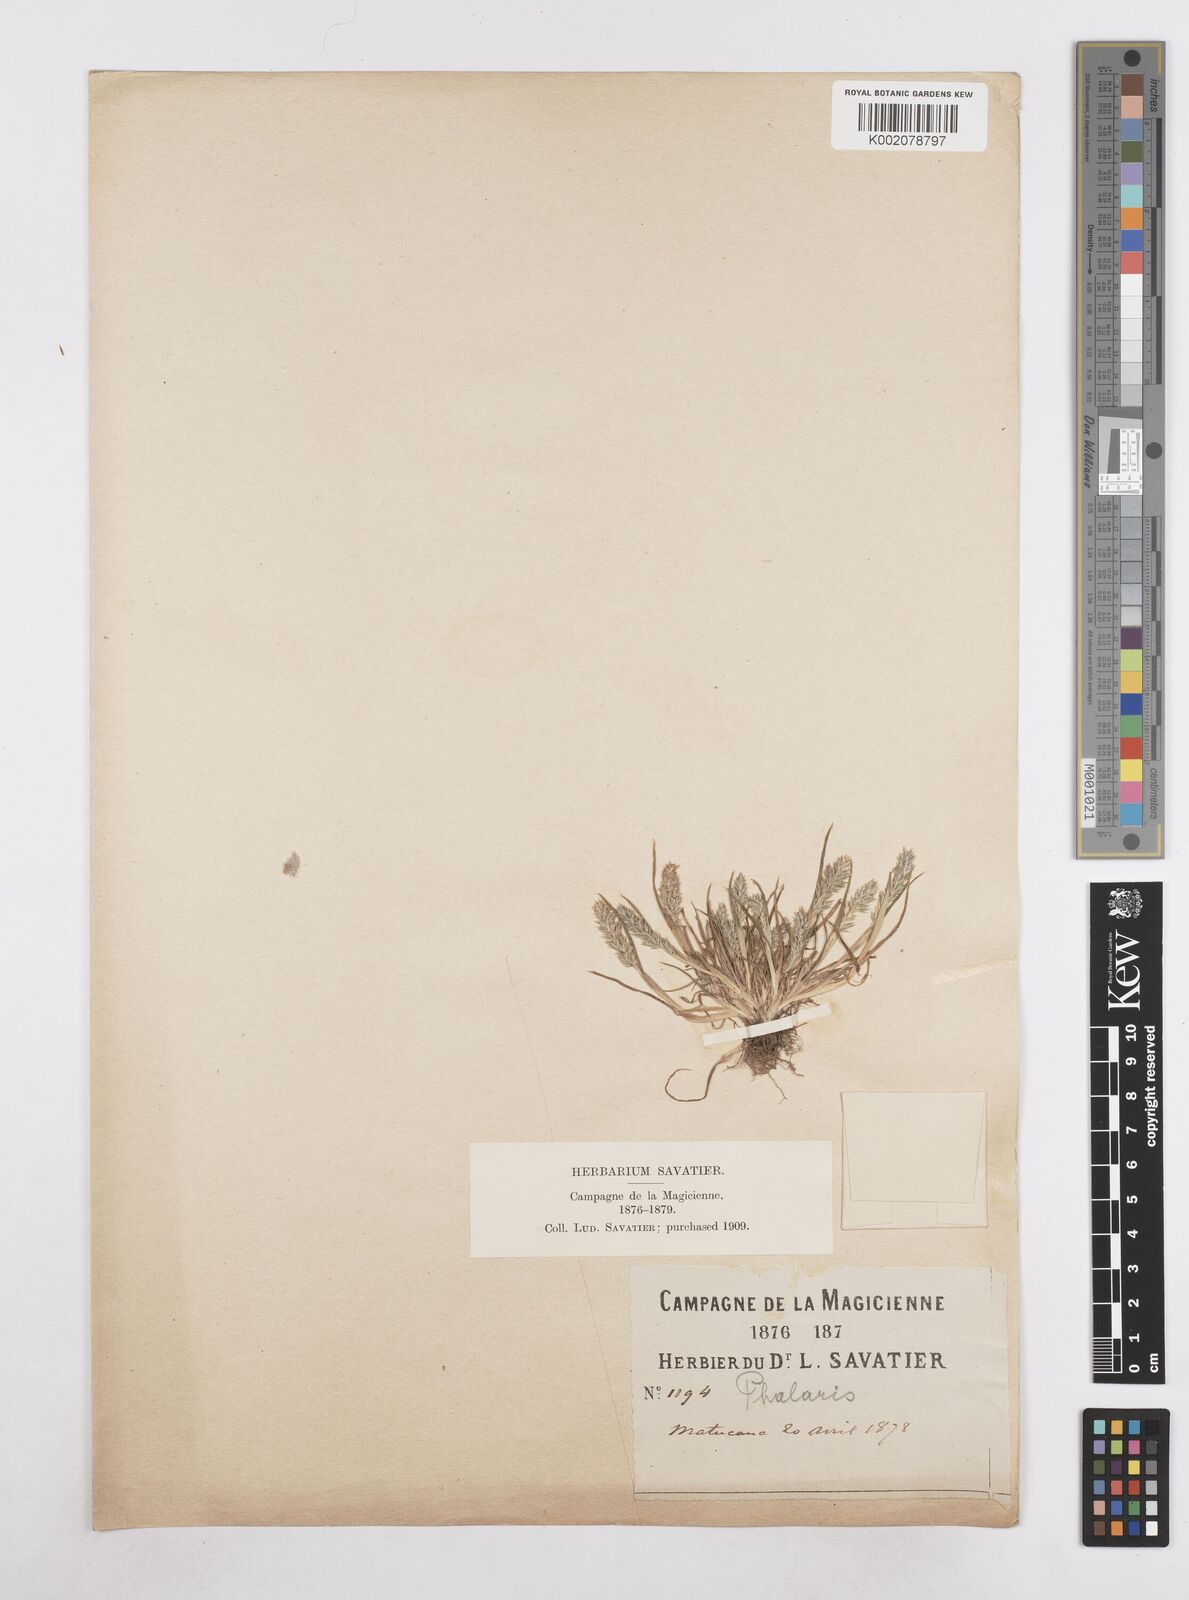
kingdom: Plantae
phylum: Tracheophyta
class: Liliopsida
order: Poales
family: Poaceae
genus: Poa
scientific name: Poa
